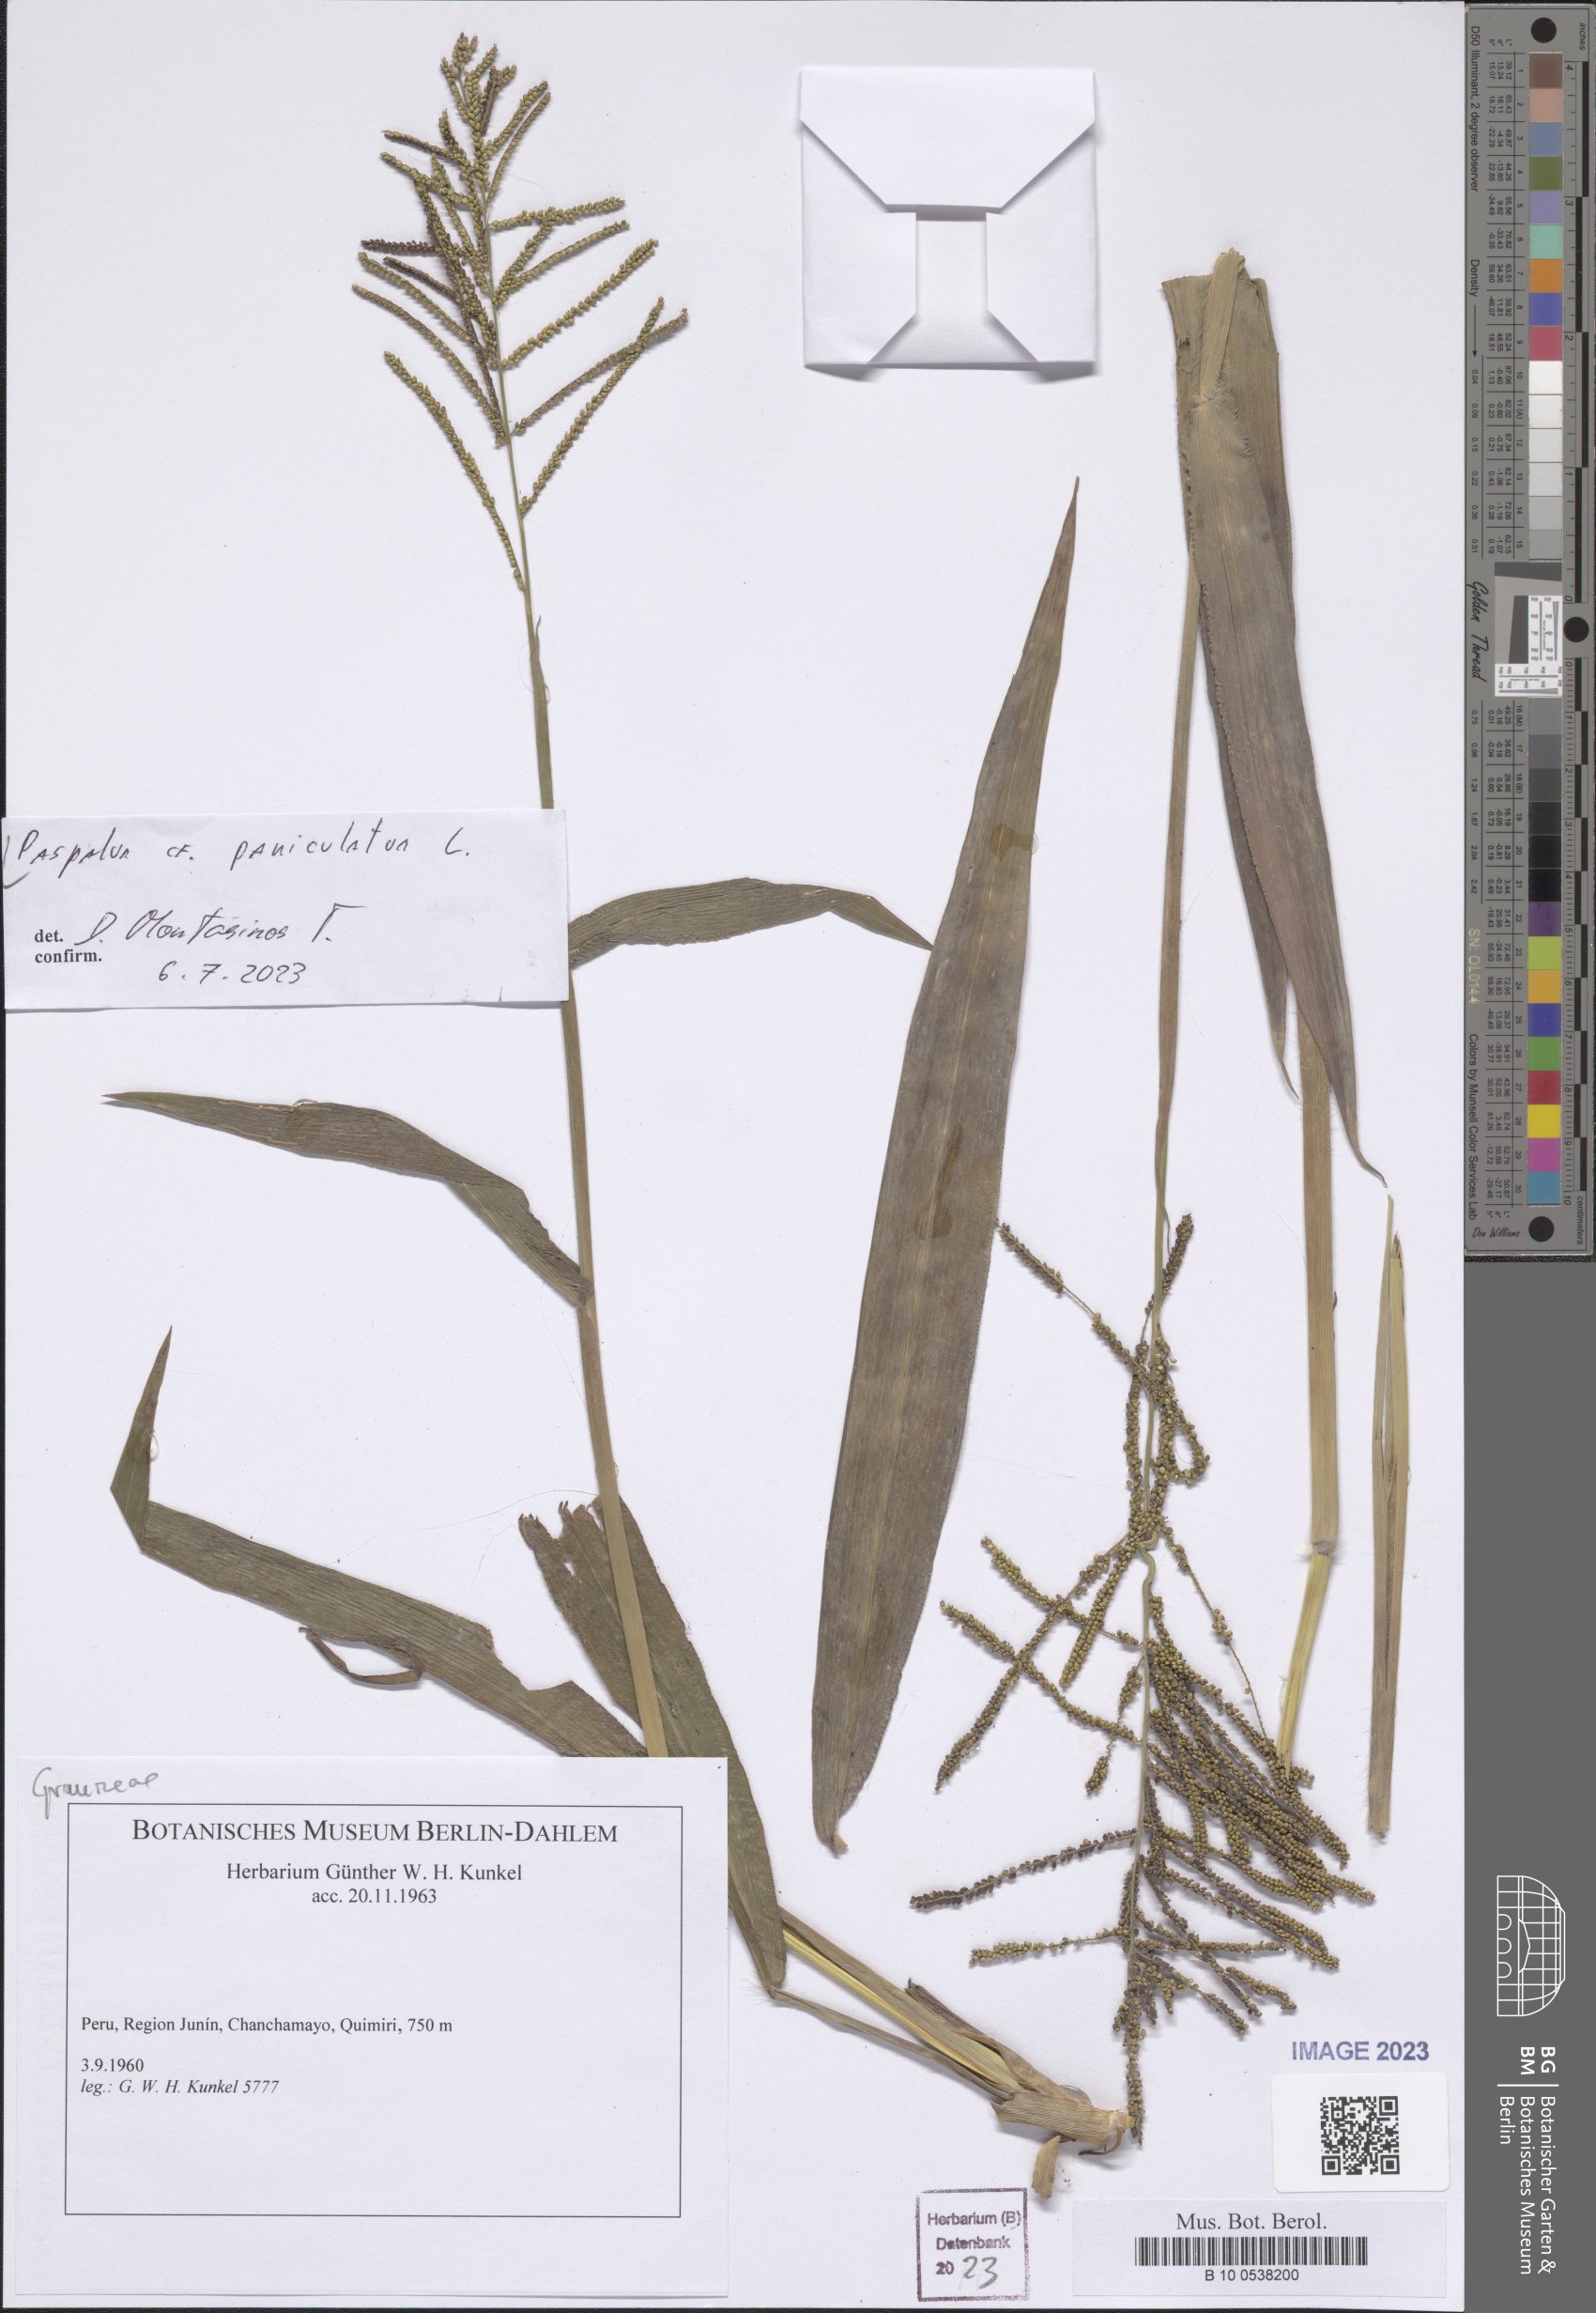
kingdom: Plantae
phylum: Tracheophyta
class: Liliopsida
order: Poales
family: Poaceae
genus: Paspalum
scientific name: Paspalum paniculatum
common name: Arrocillo
